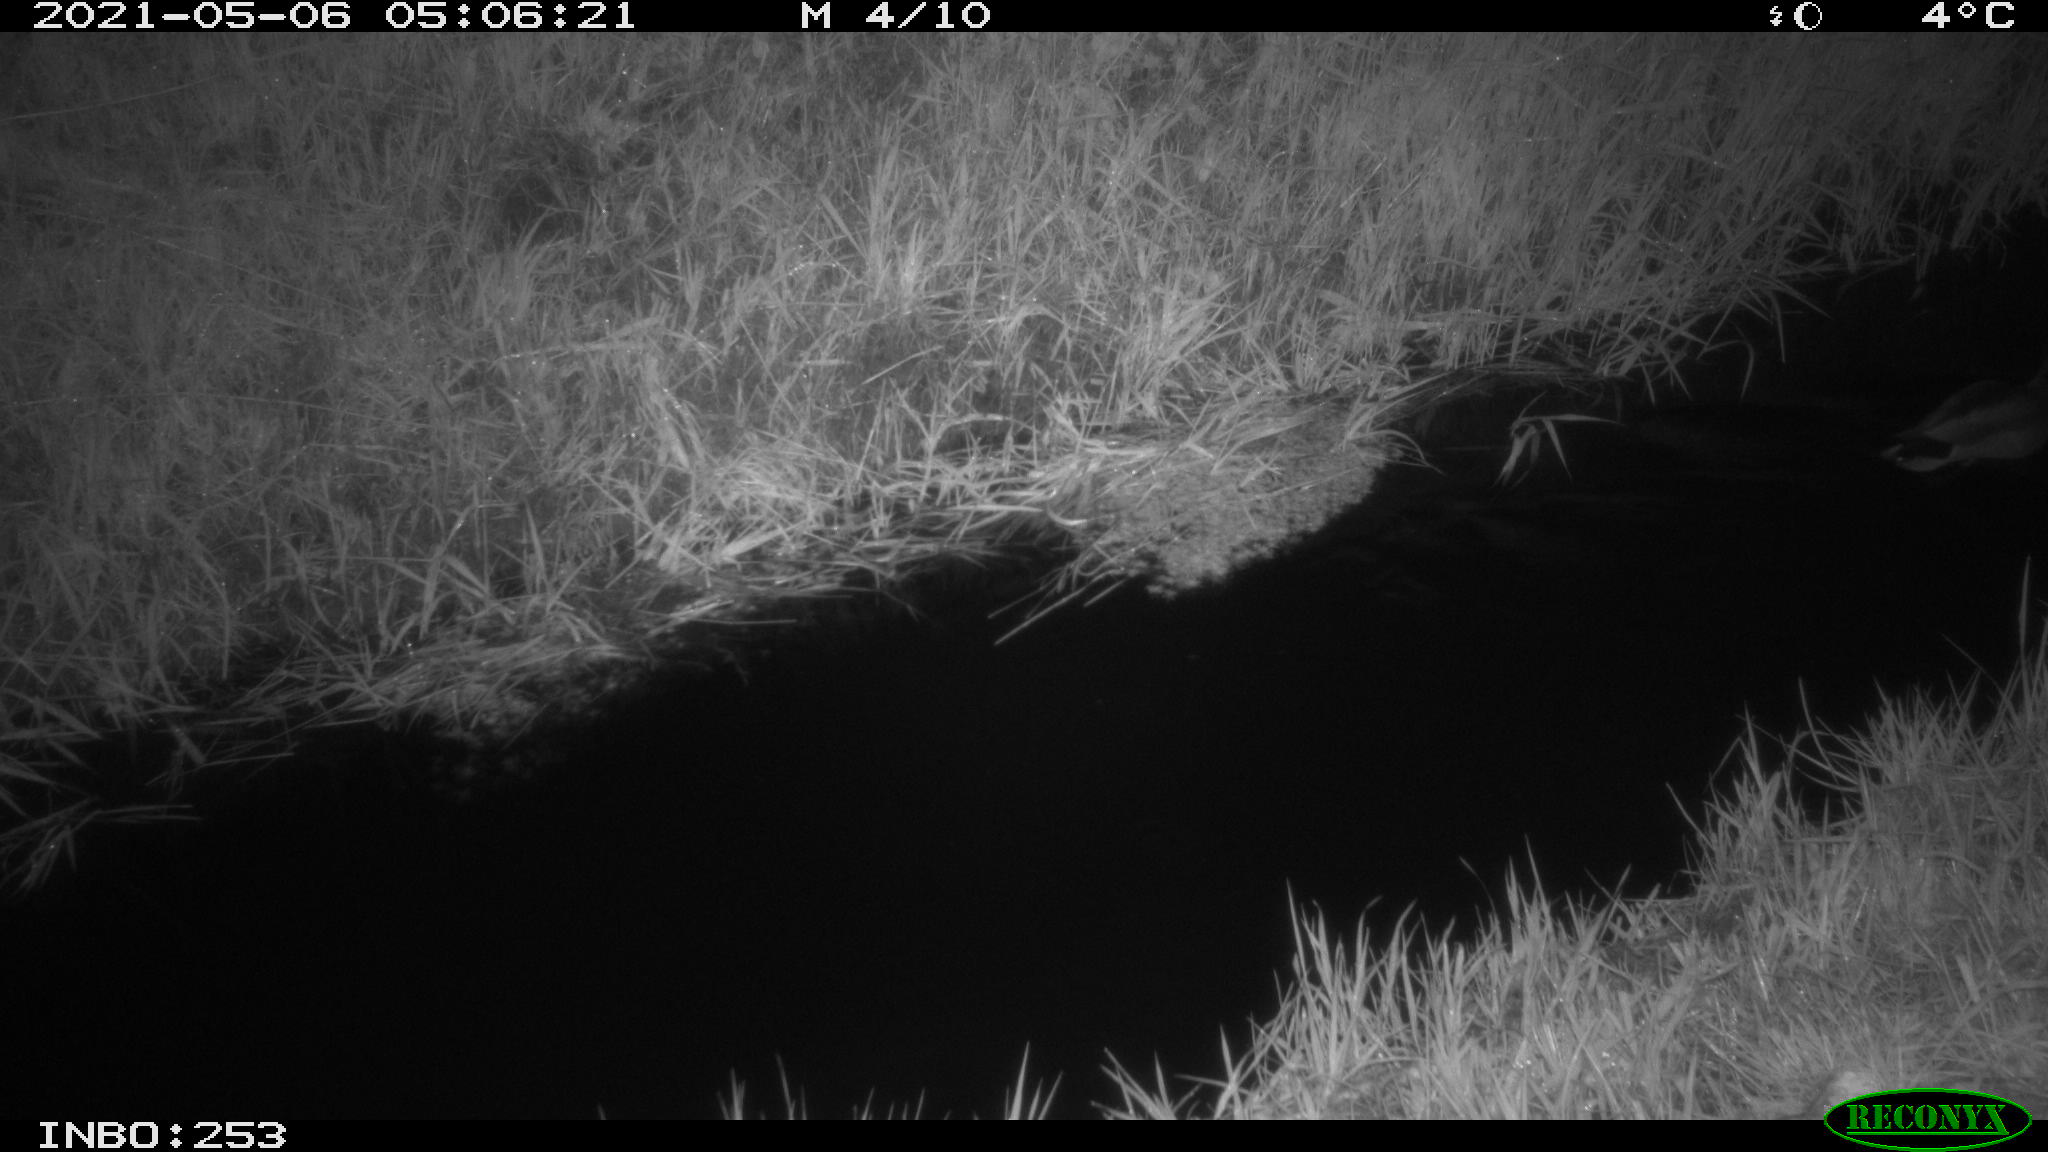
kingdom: Animalia
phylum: Chordata
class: Aves
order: Anseriformes
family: Anatidae
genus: Anas
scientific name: Anas platyrhynchos
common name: Mallard
